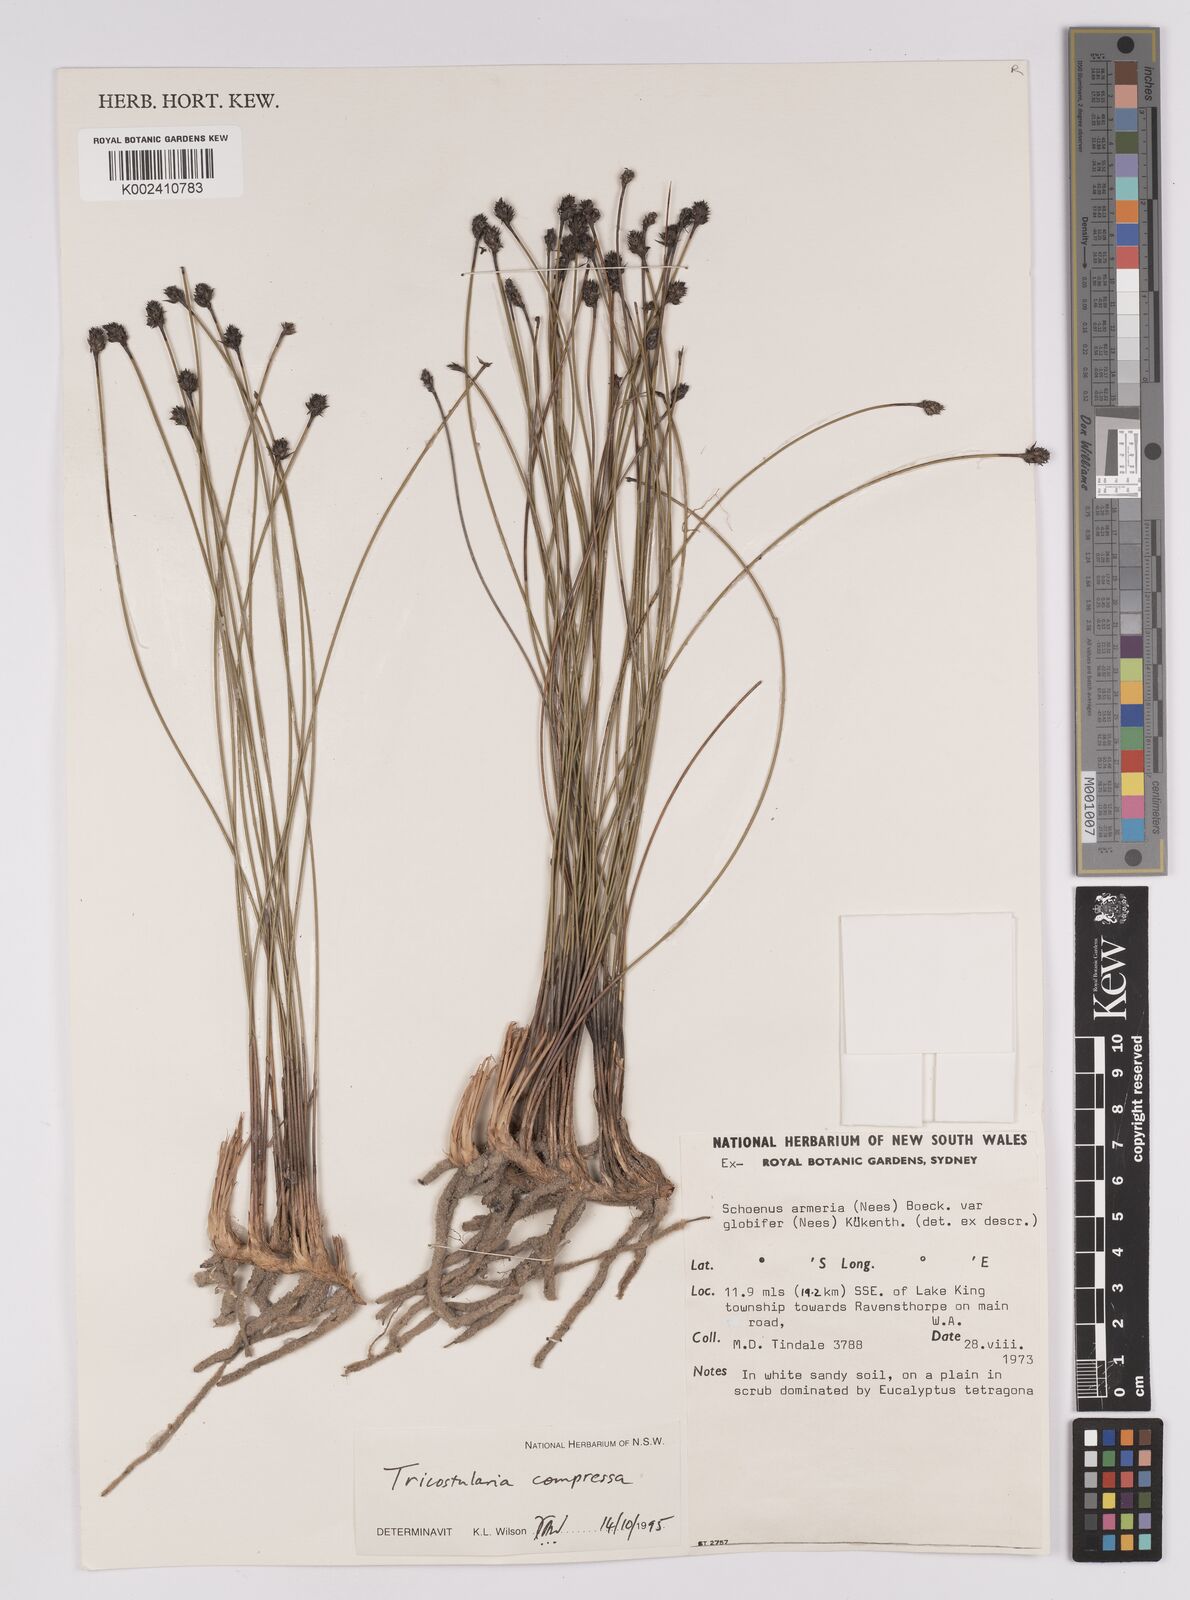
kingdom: Plantae
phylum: Tracheophyta
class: Liliopsida
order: Poales
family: Cyperaceae
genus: Tricostularia
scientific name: Tricostularia compressa
